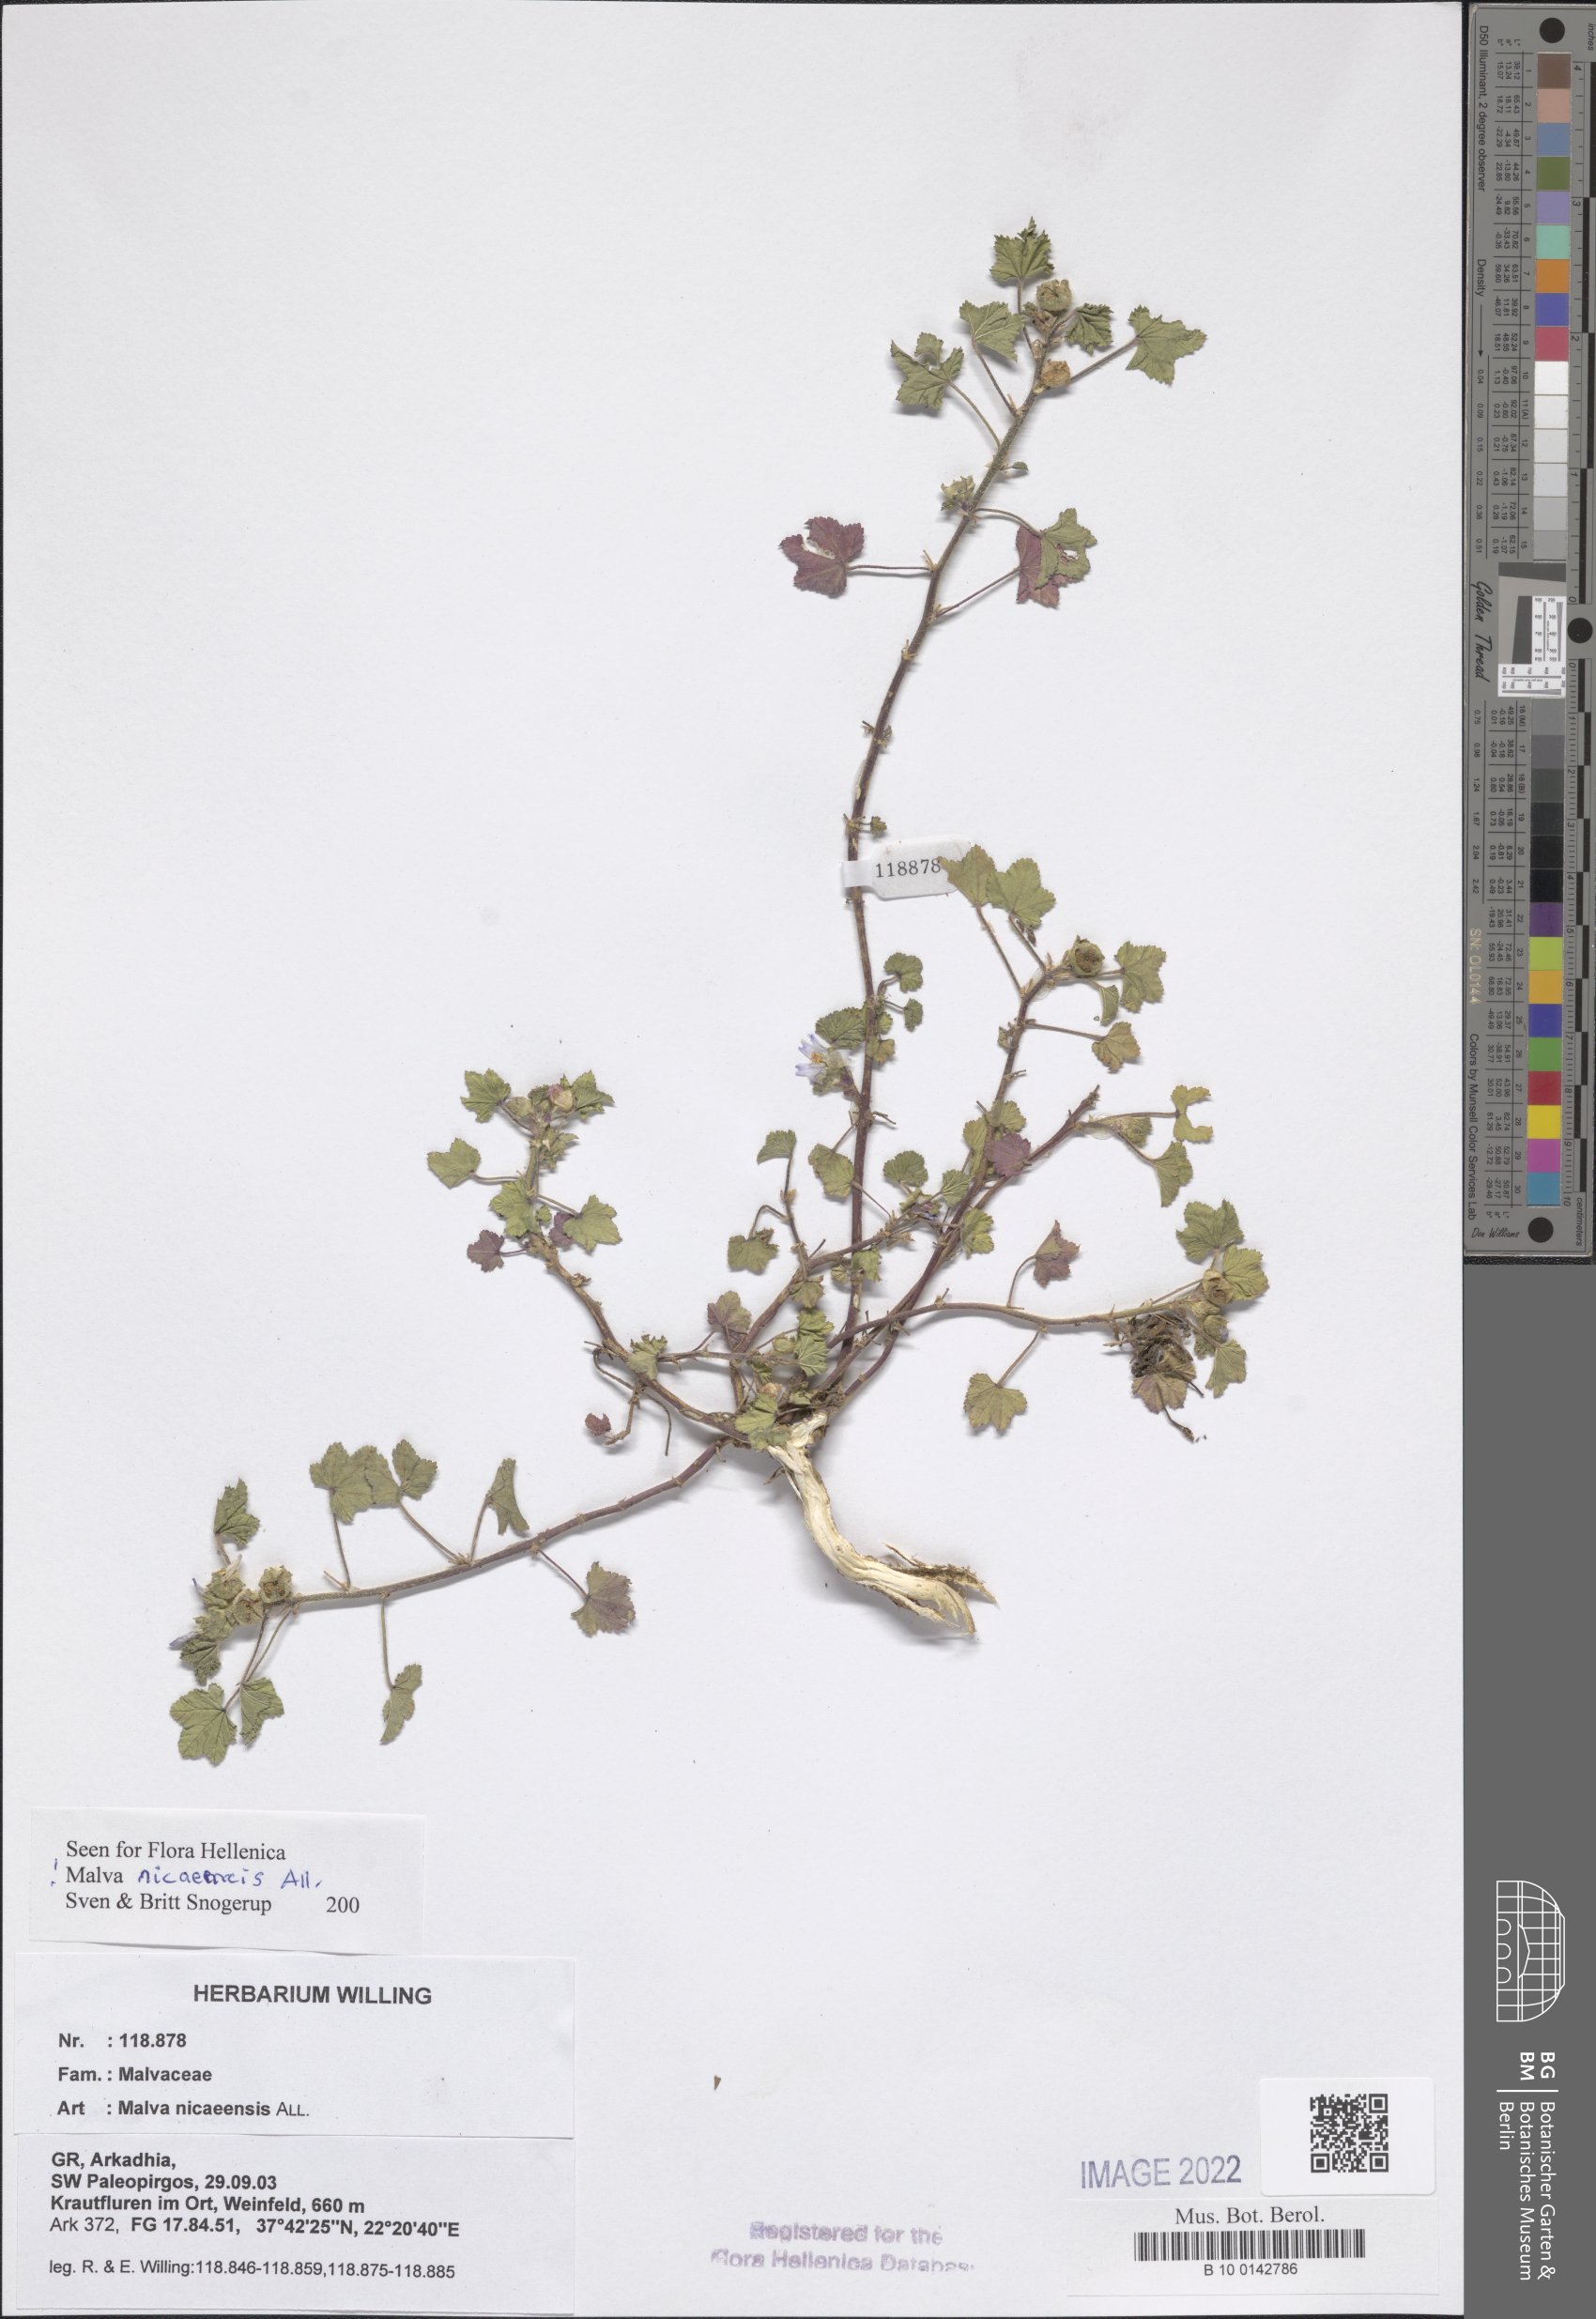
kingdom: Plantae
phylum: Tracheophyta
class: Magnoliopsida
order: Malvales
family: Malvaceae
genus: Malva
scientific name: Malva nicaeensis
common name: French mallow
